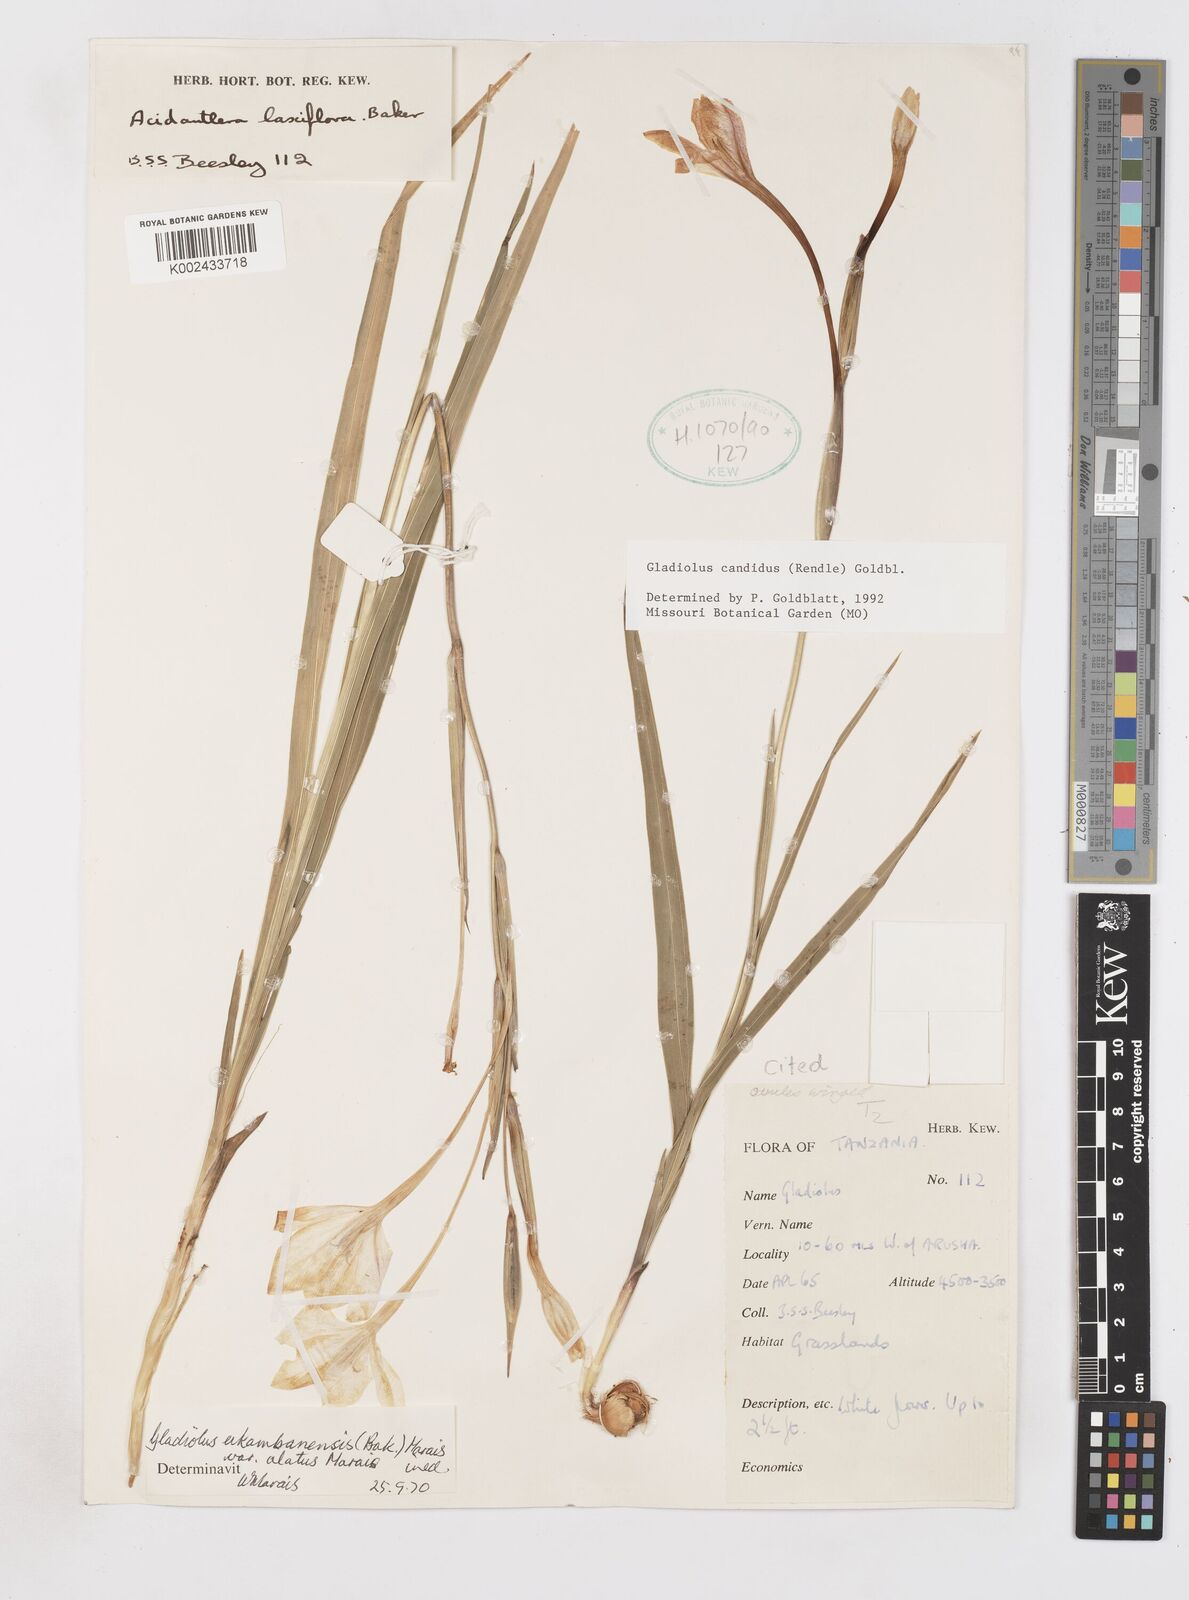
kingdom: Plantae
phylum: Tracheophyta
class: Liliopsida
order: Asparagales
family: Iridaceae
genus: Gladiolus
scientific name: Gladiolus candidus
